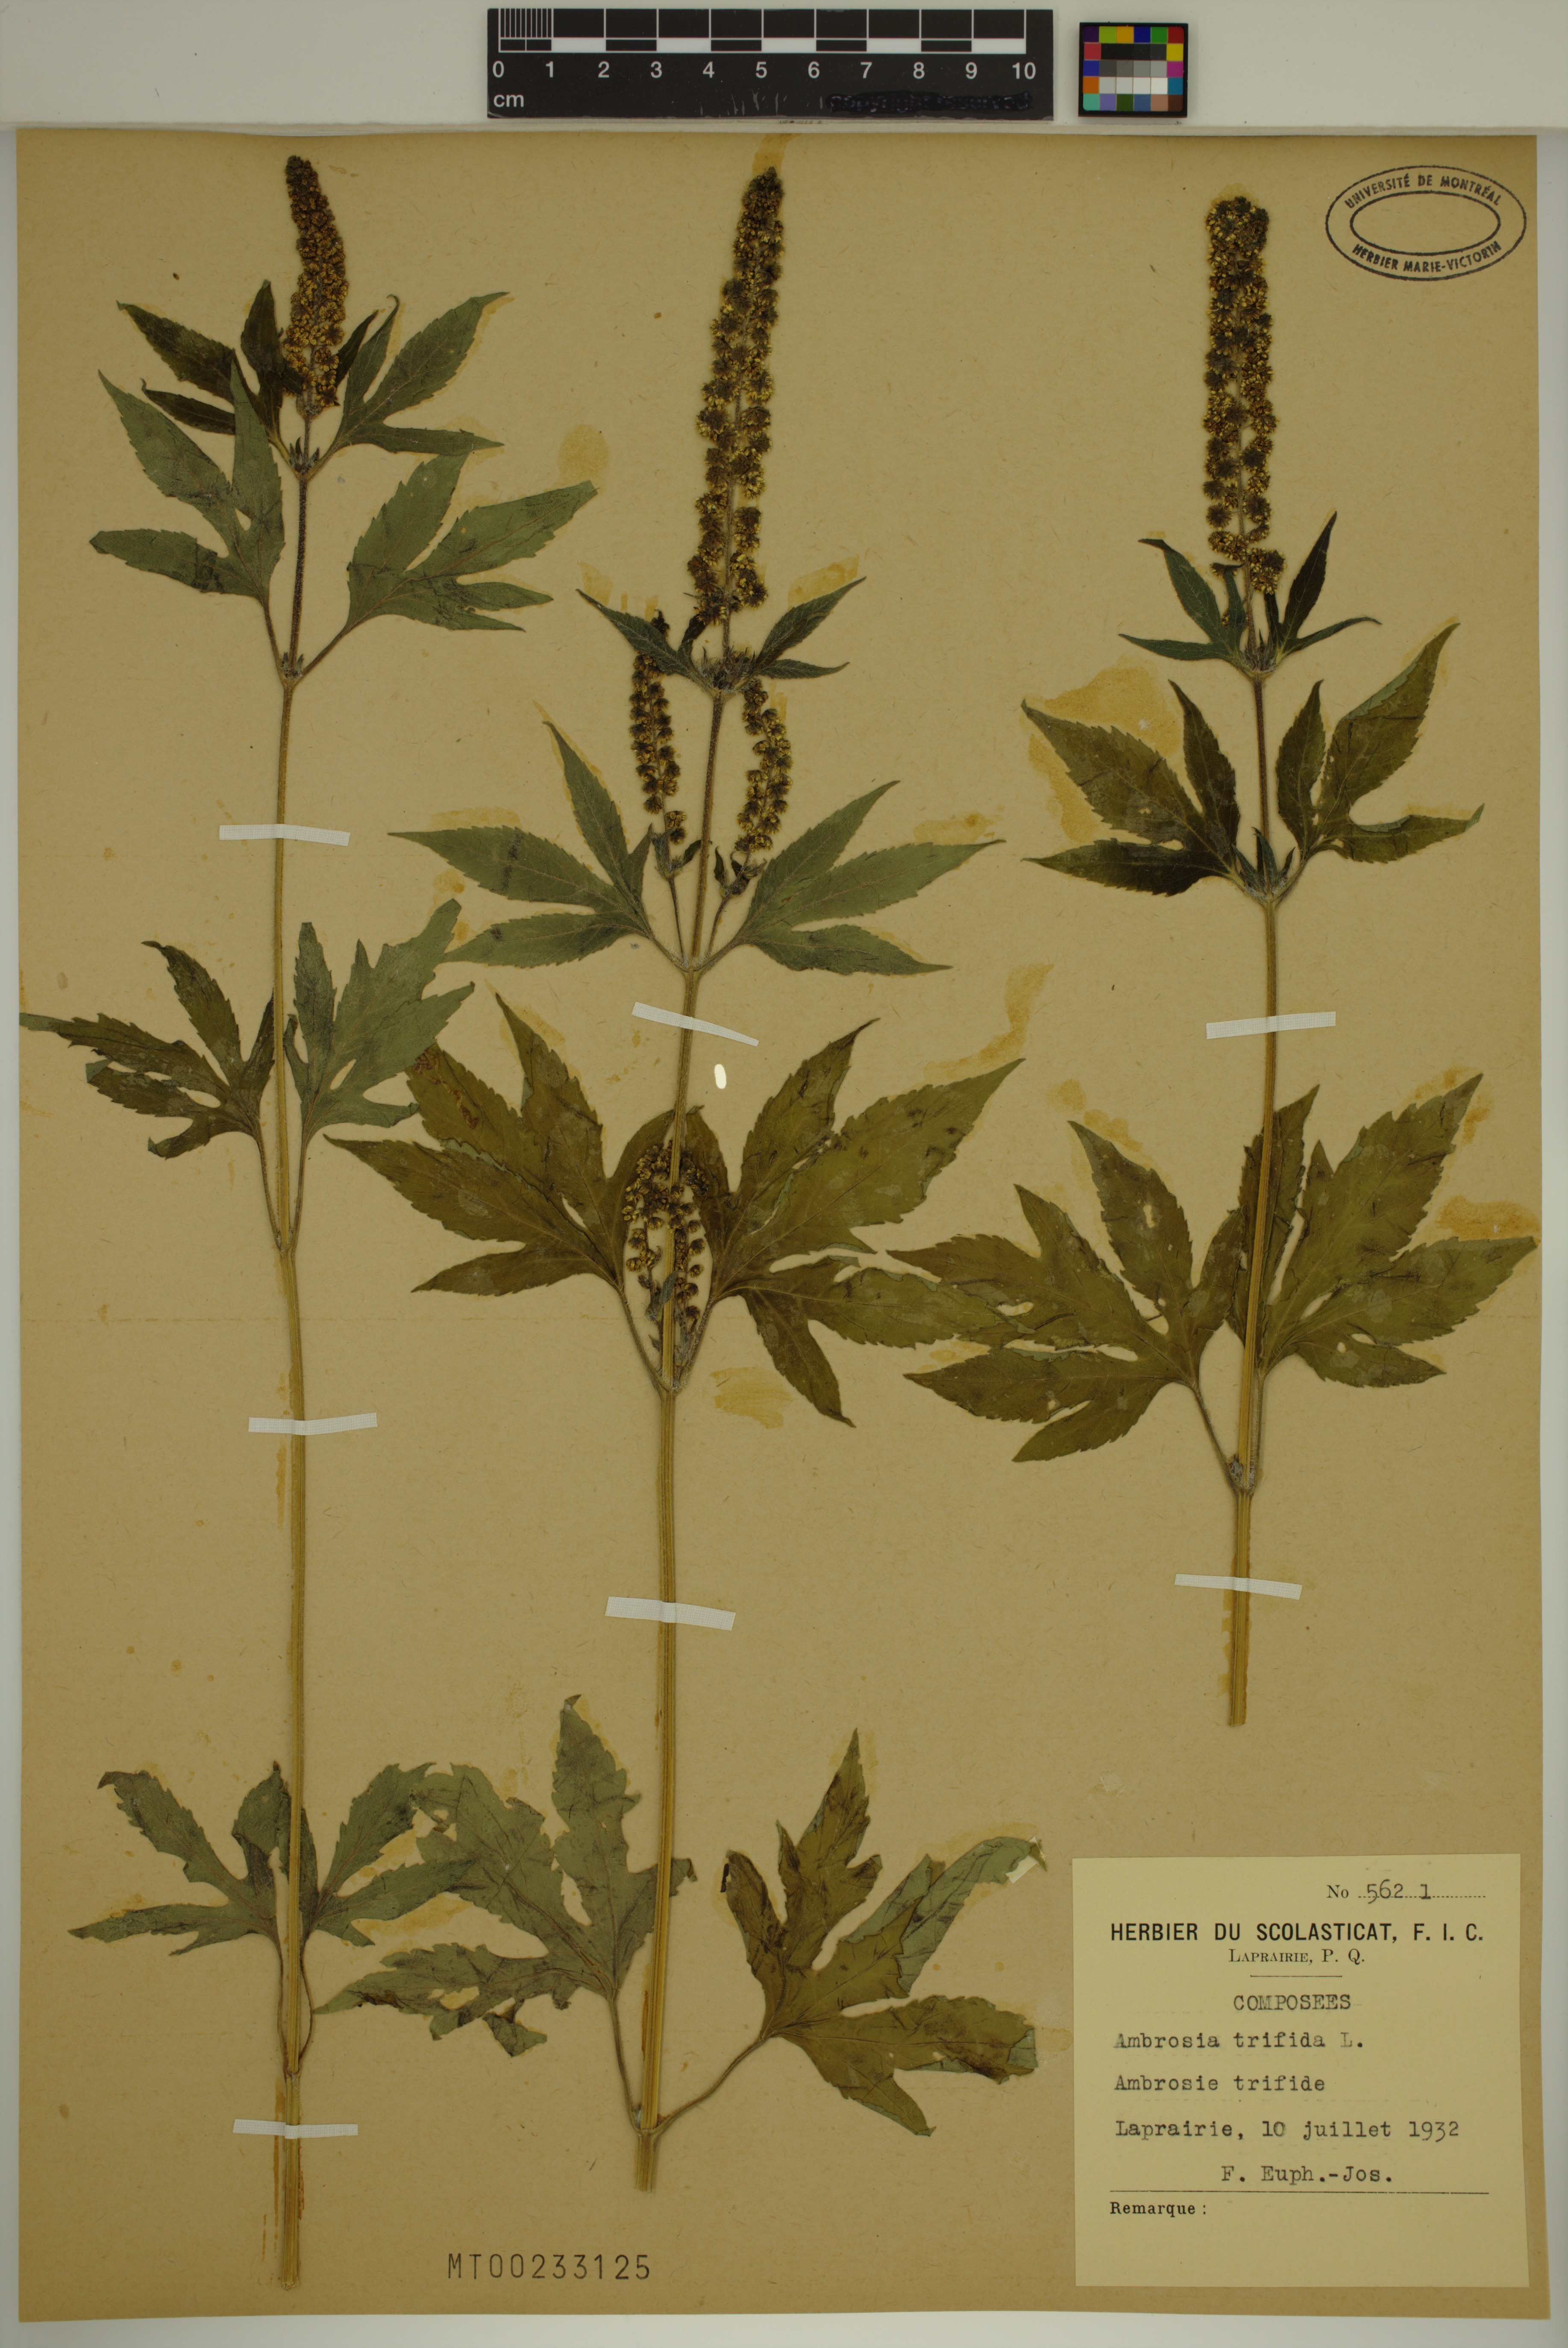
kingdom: Plantae
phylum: Tracheophyta
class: Magnoliopsida
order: Asterales
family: Asteraceae
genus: Ambrosia
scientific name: Ambrosia trifida
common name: Giant ragweed
